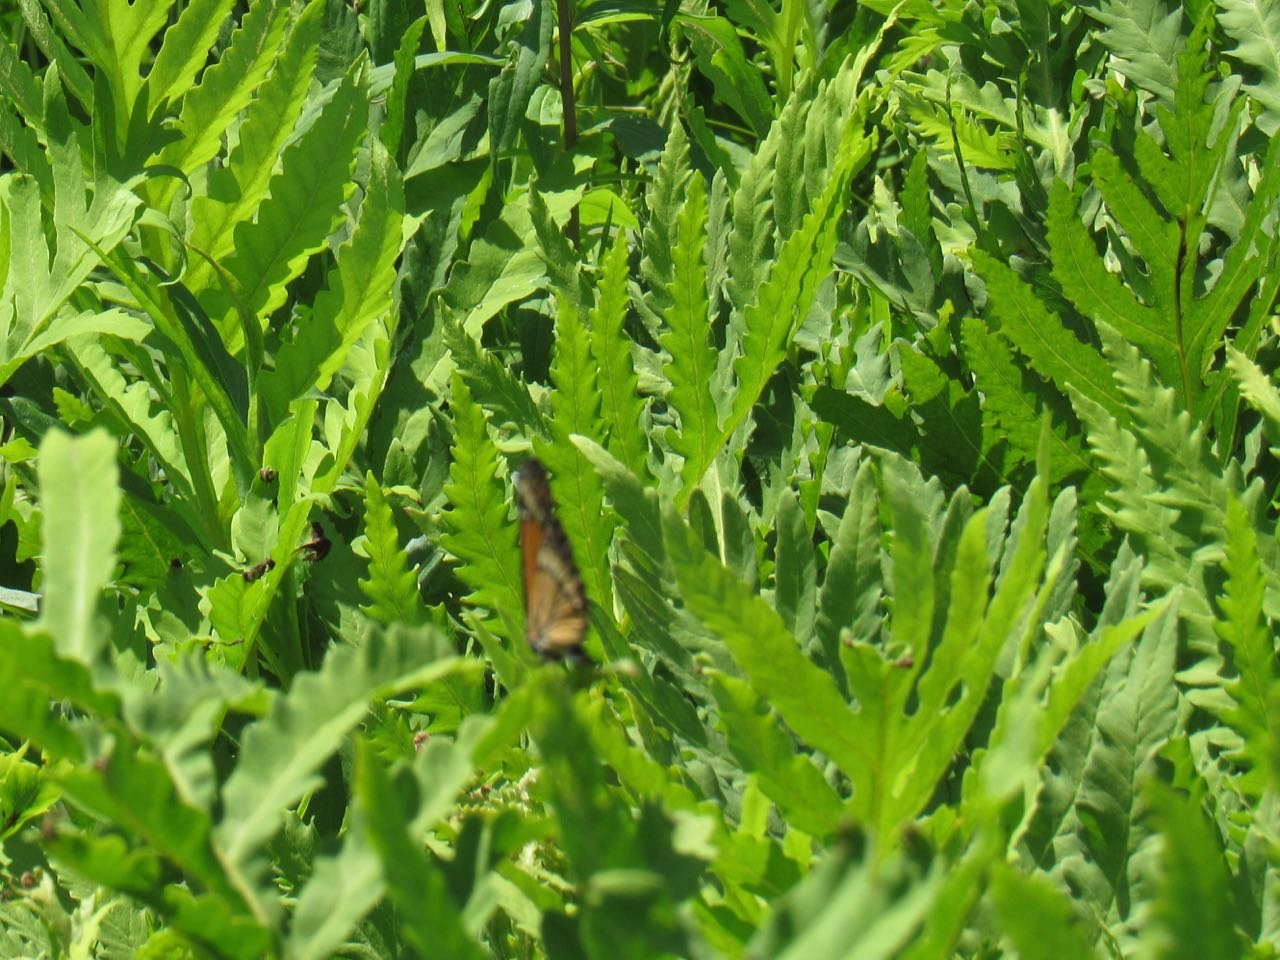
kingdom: Animalia
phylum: Arthropoda
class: Insecta
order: Lepidoptera
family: Nymphalidae
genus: Limenitis
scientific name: Limenitis archippus
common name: Viceroy
